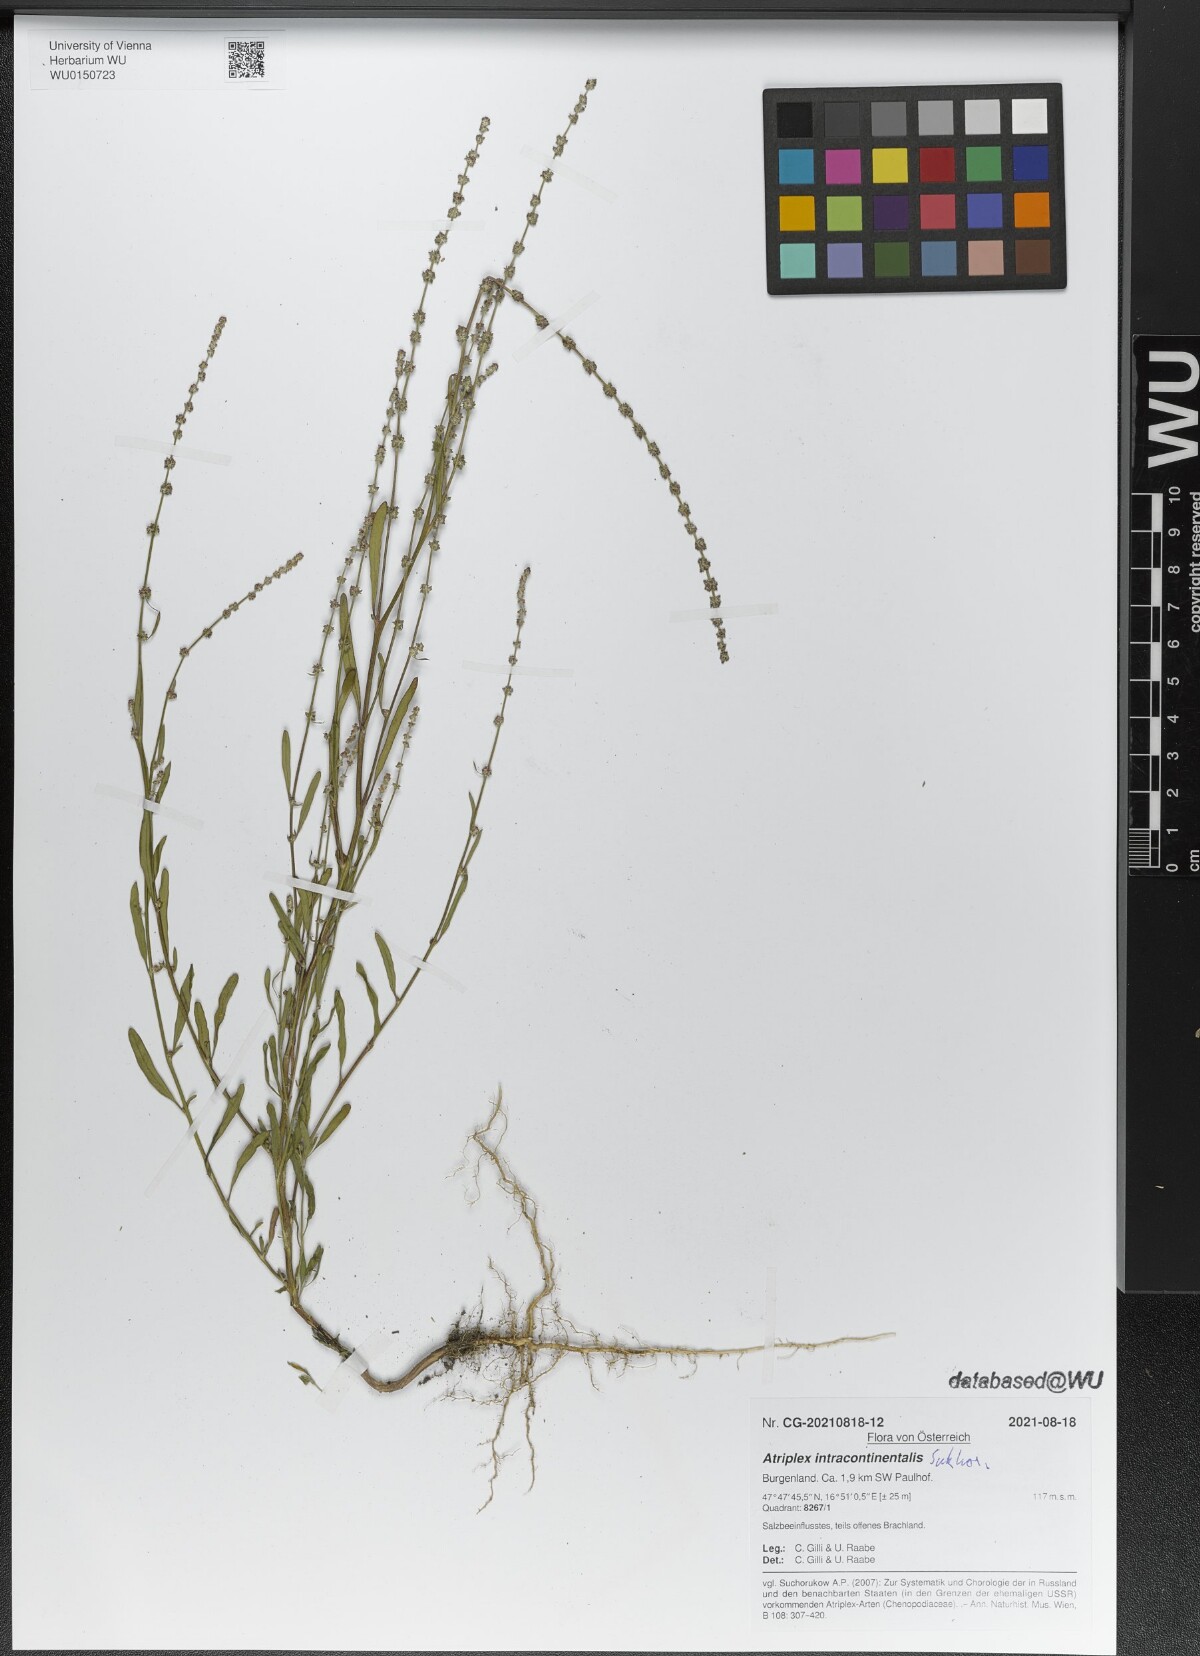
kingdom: Plantae
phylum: Tracheophyta
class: Magnoliopsida
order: Caryophyllales
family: Amaranthaceae
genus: Atriplex
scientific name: Atriplex intracontinentalis
